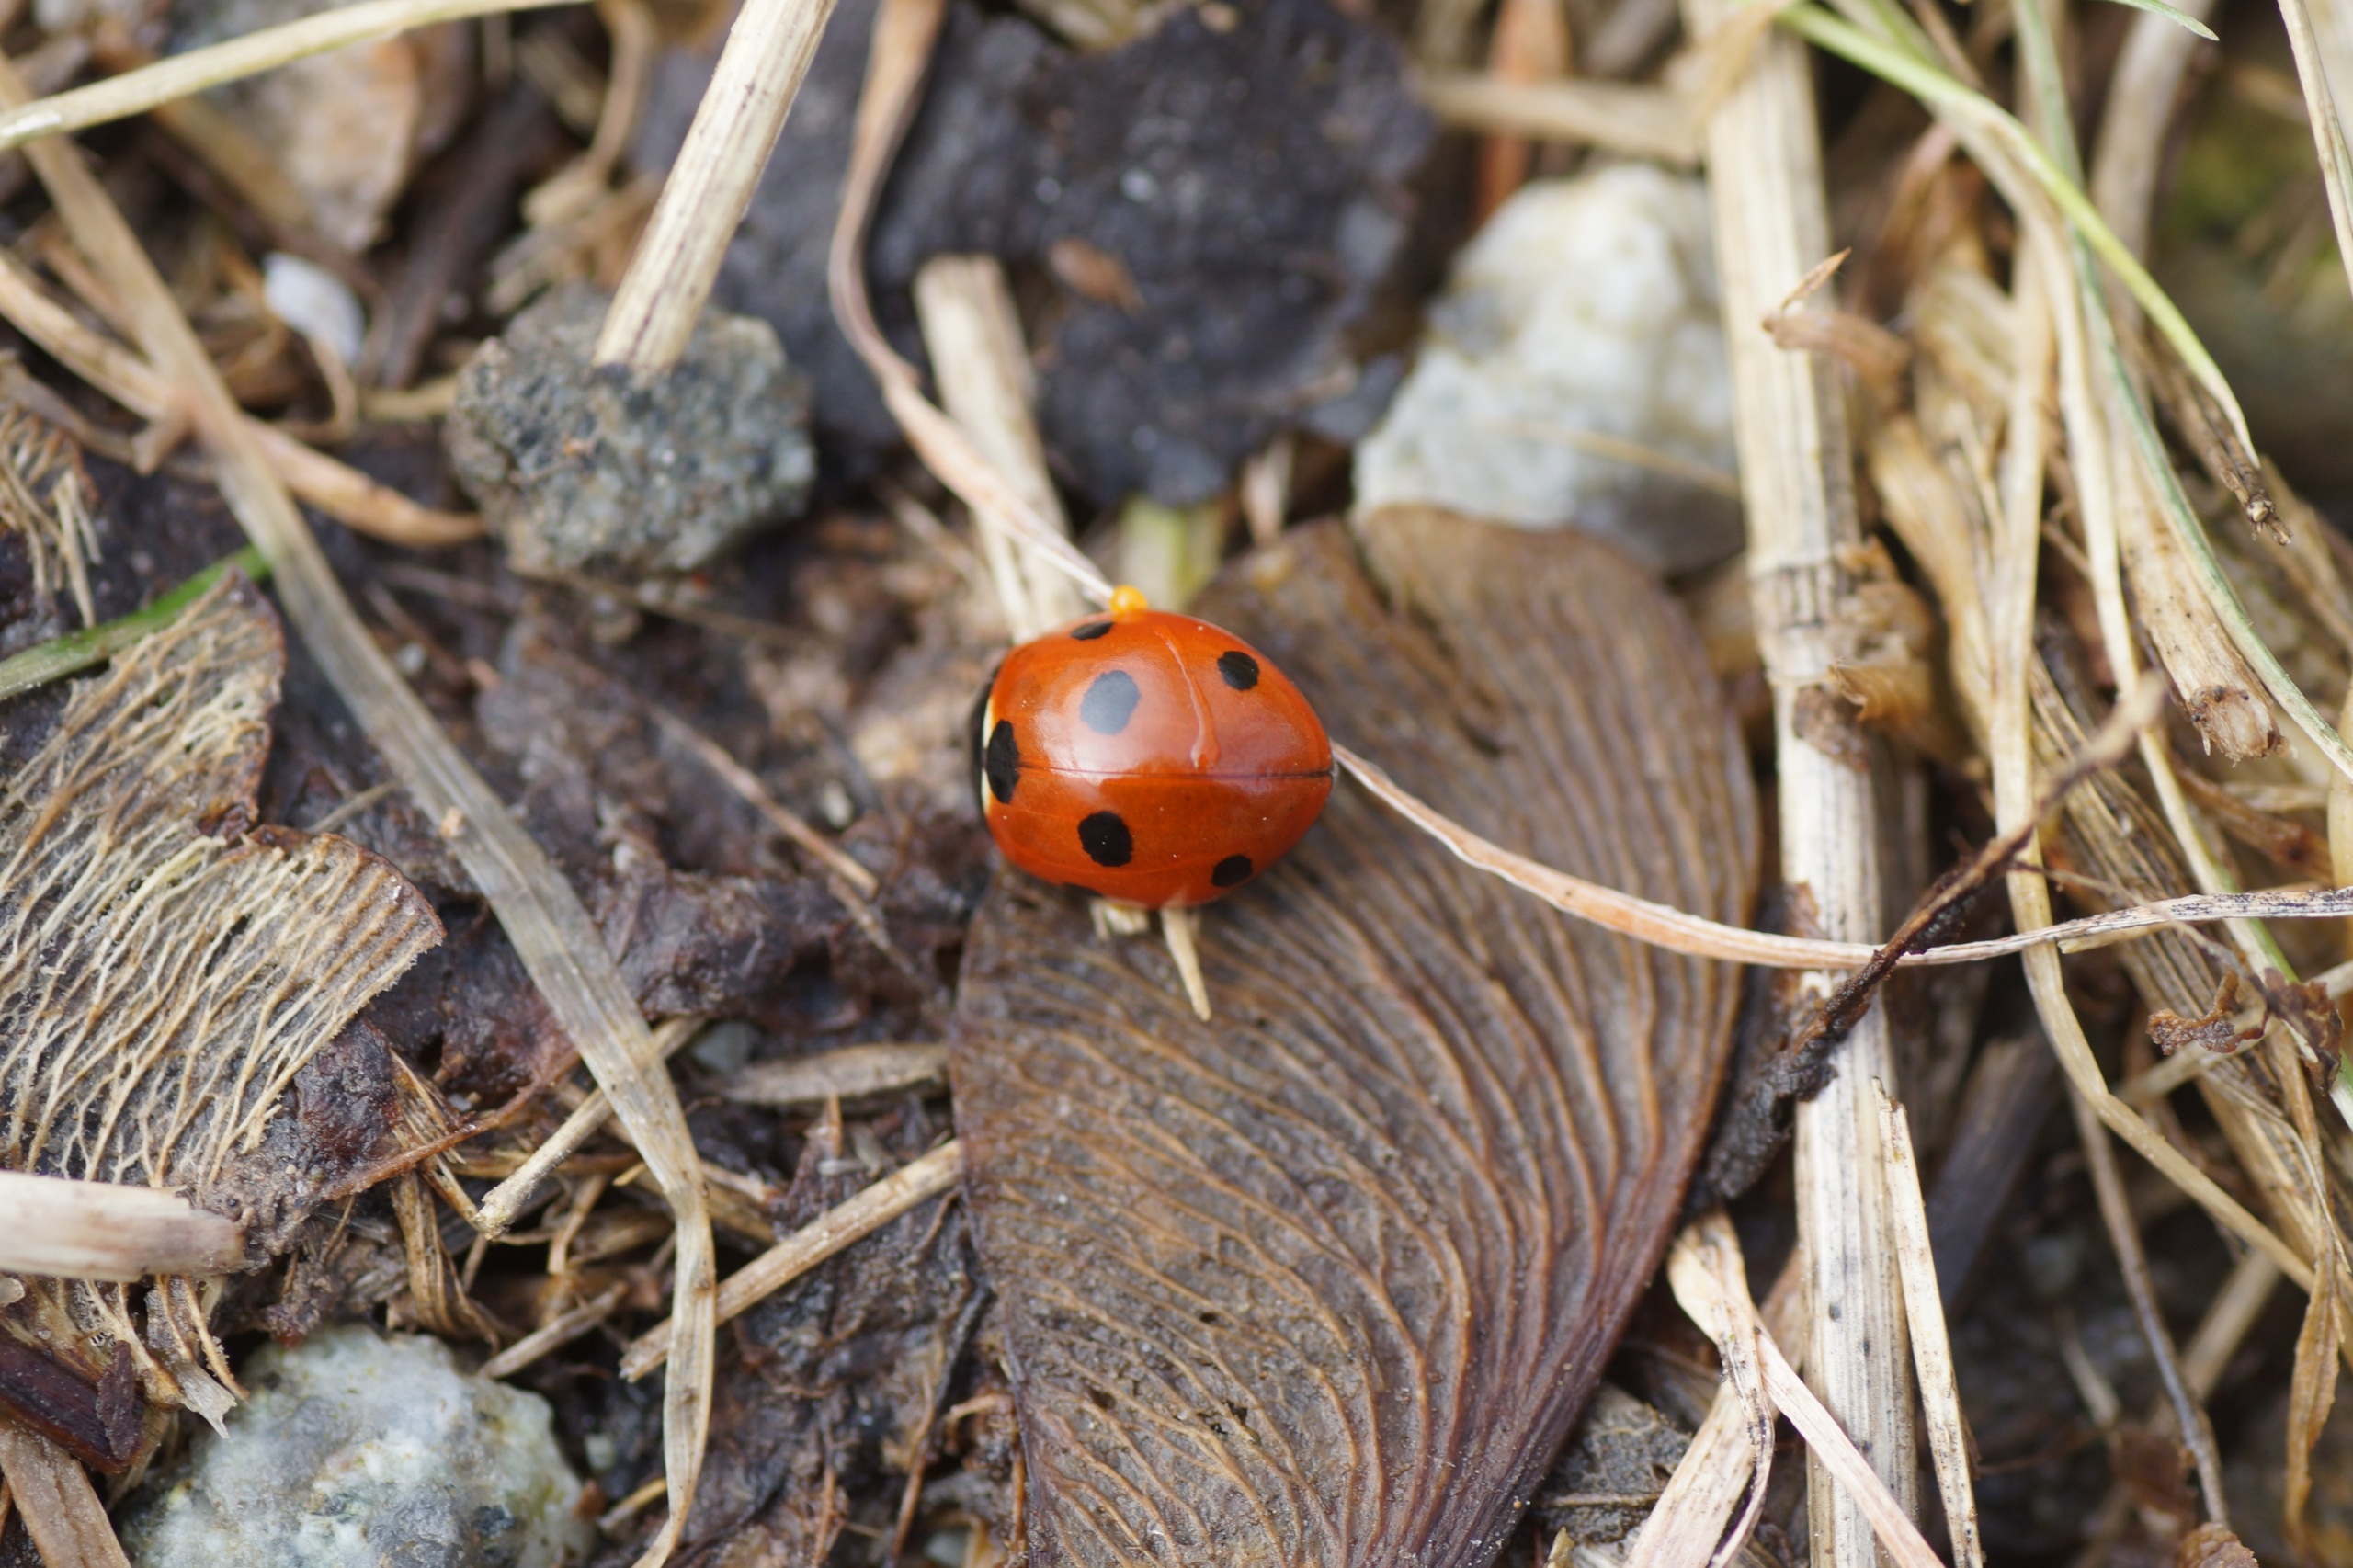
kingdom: Animalia
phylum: Arthropoda
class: Insecta
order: Coleoptera
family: Coccinellidae
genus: Coccinella
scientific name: Coccinella septempunctata
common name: Syvplettet mariehøne
